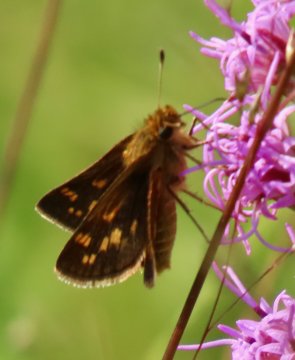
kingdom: Animalia
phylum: Arthropoda
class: Insecta
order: Lepidoptera
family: Hesperiidae
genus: Polites
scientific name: Polites coras
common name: Peck's Skipper
